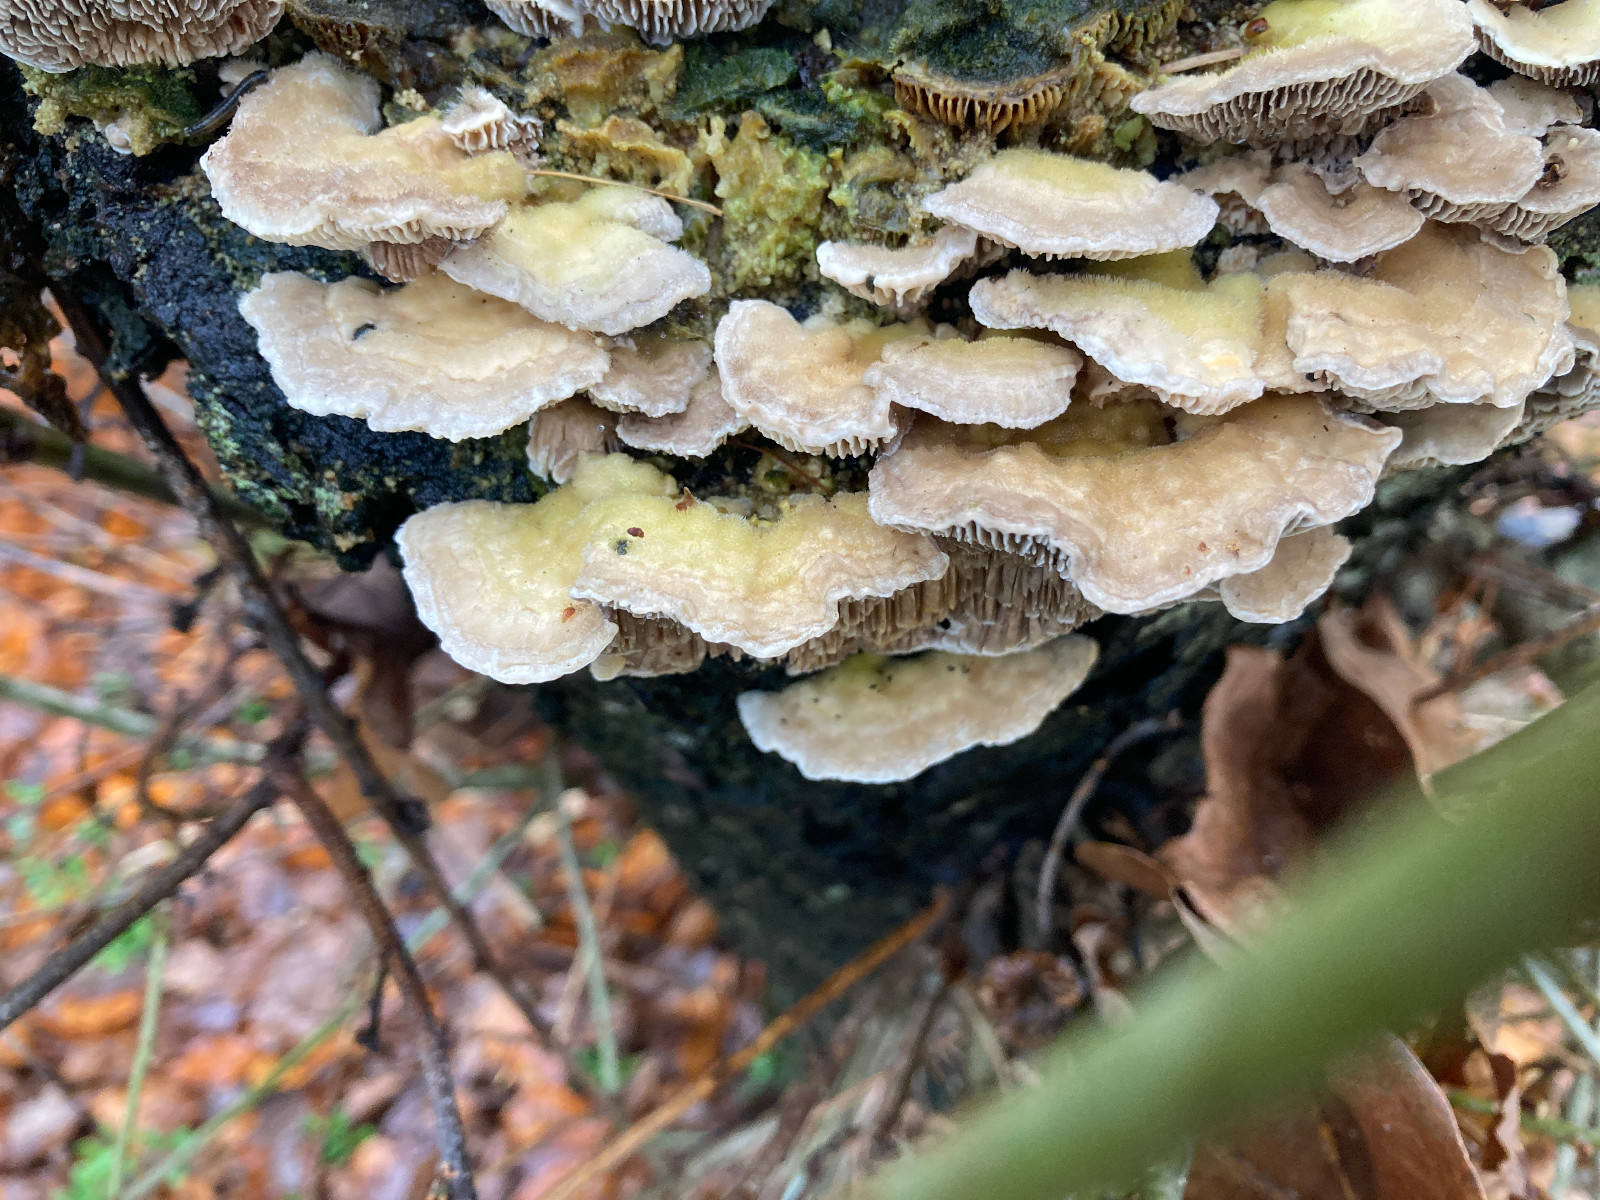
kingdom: Fungi
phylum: Basidiomycota
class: Agaricomycetes
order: Polyporales
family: Polyporaceae
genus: Lenzites
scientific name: Lenzites betulinus
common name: birke-læderporesvamp
